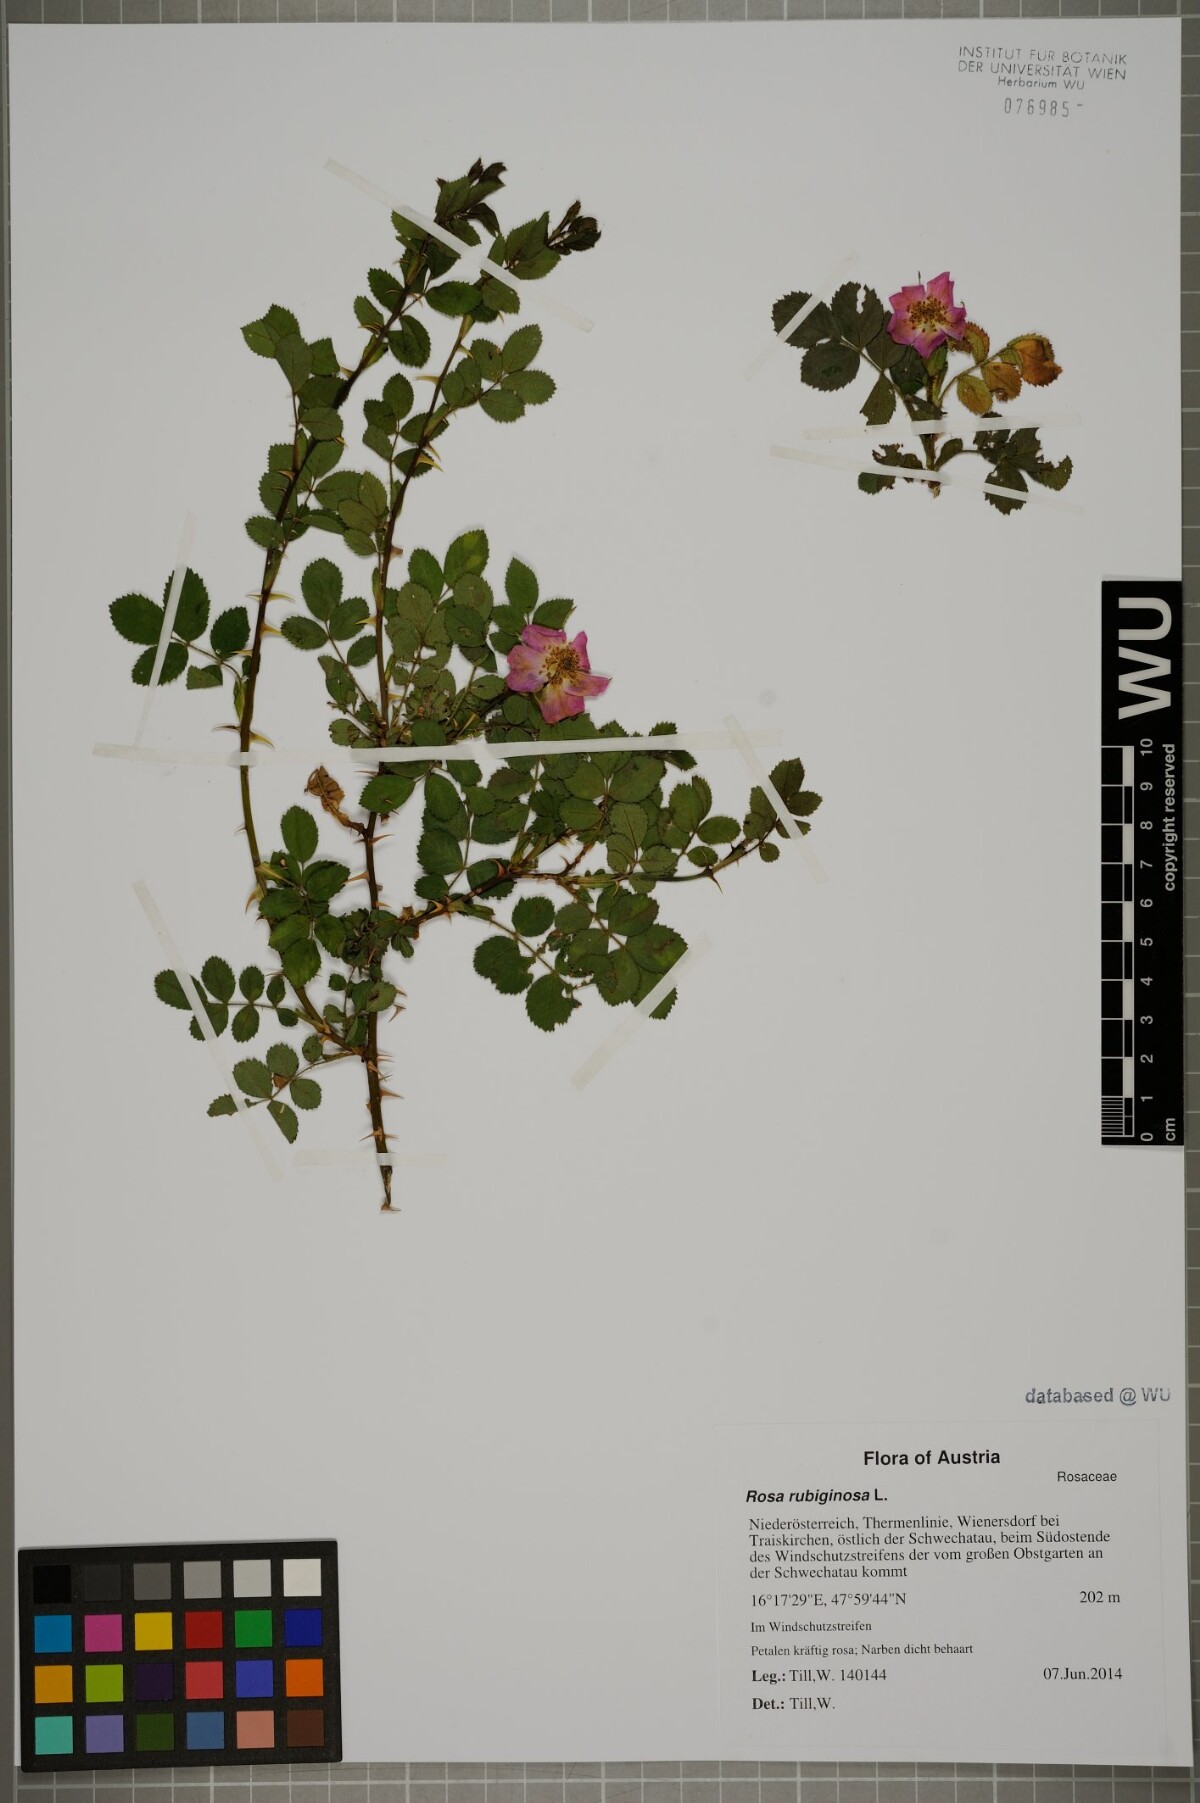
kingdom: Plantae
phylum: Tracheophyta
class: Magnoliopsida
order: Rosales
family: Rosaceae
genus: Rosa
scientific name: Rosa rubiginosa
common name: Sweet-briar
